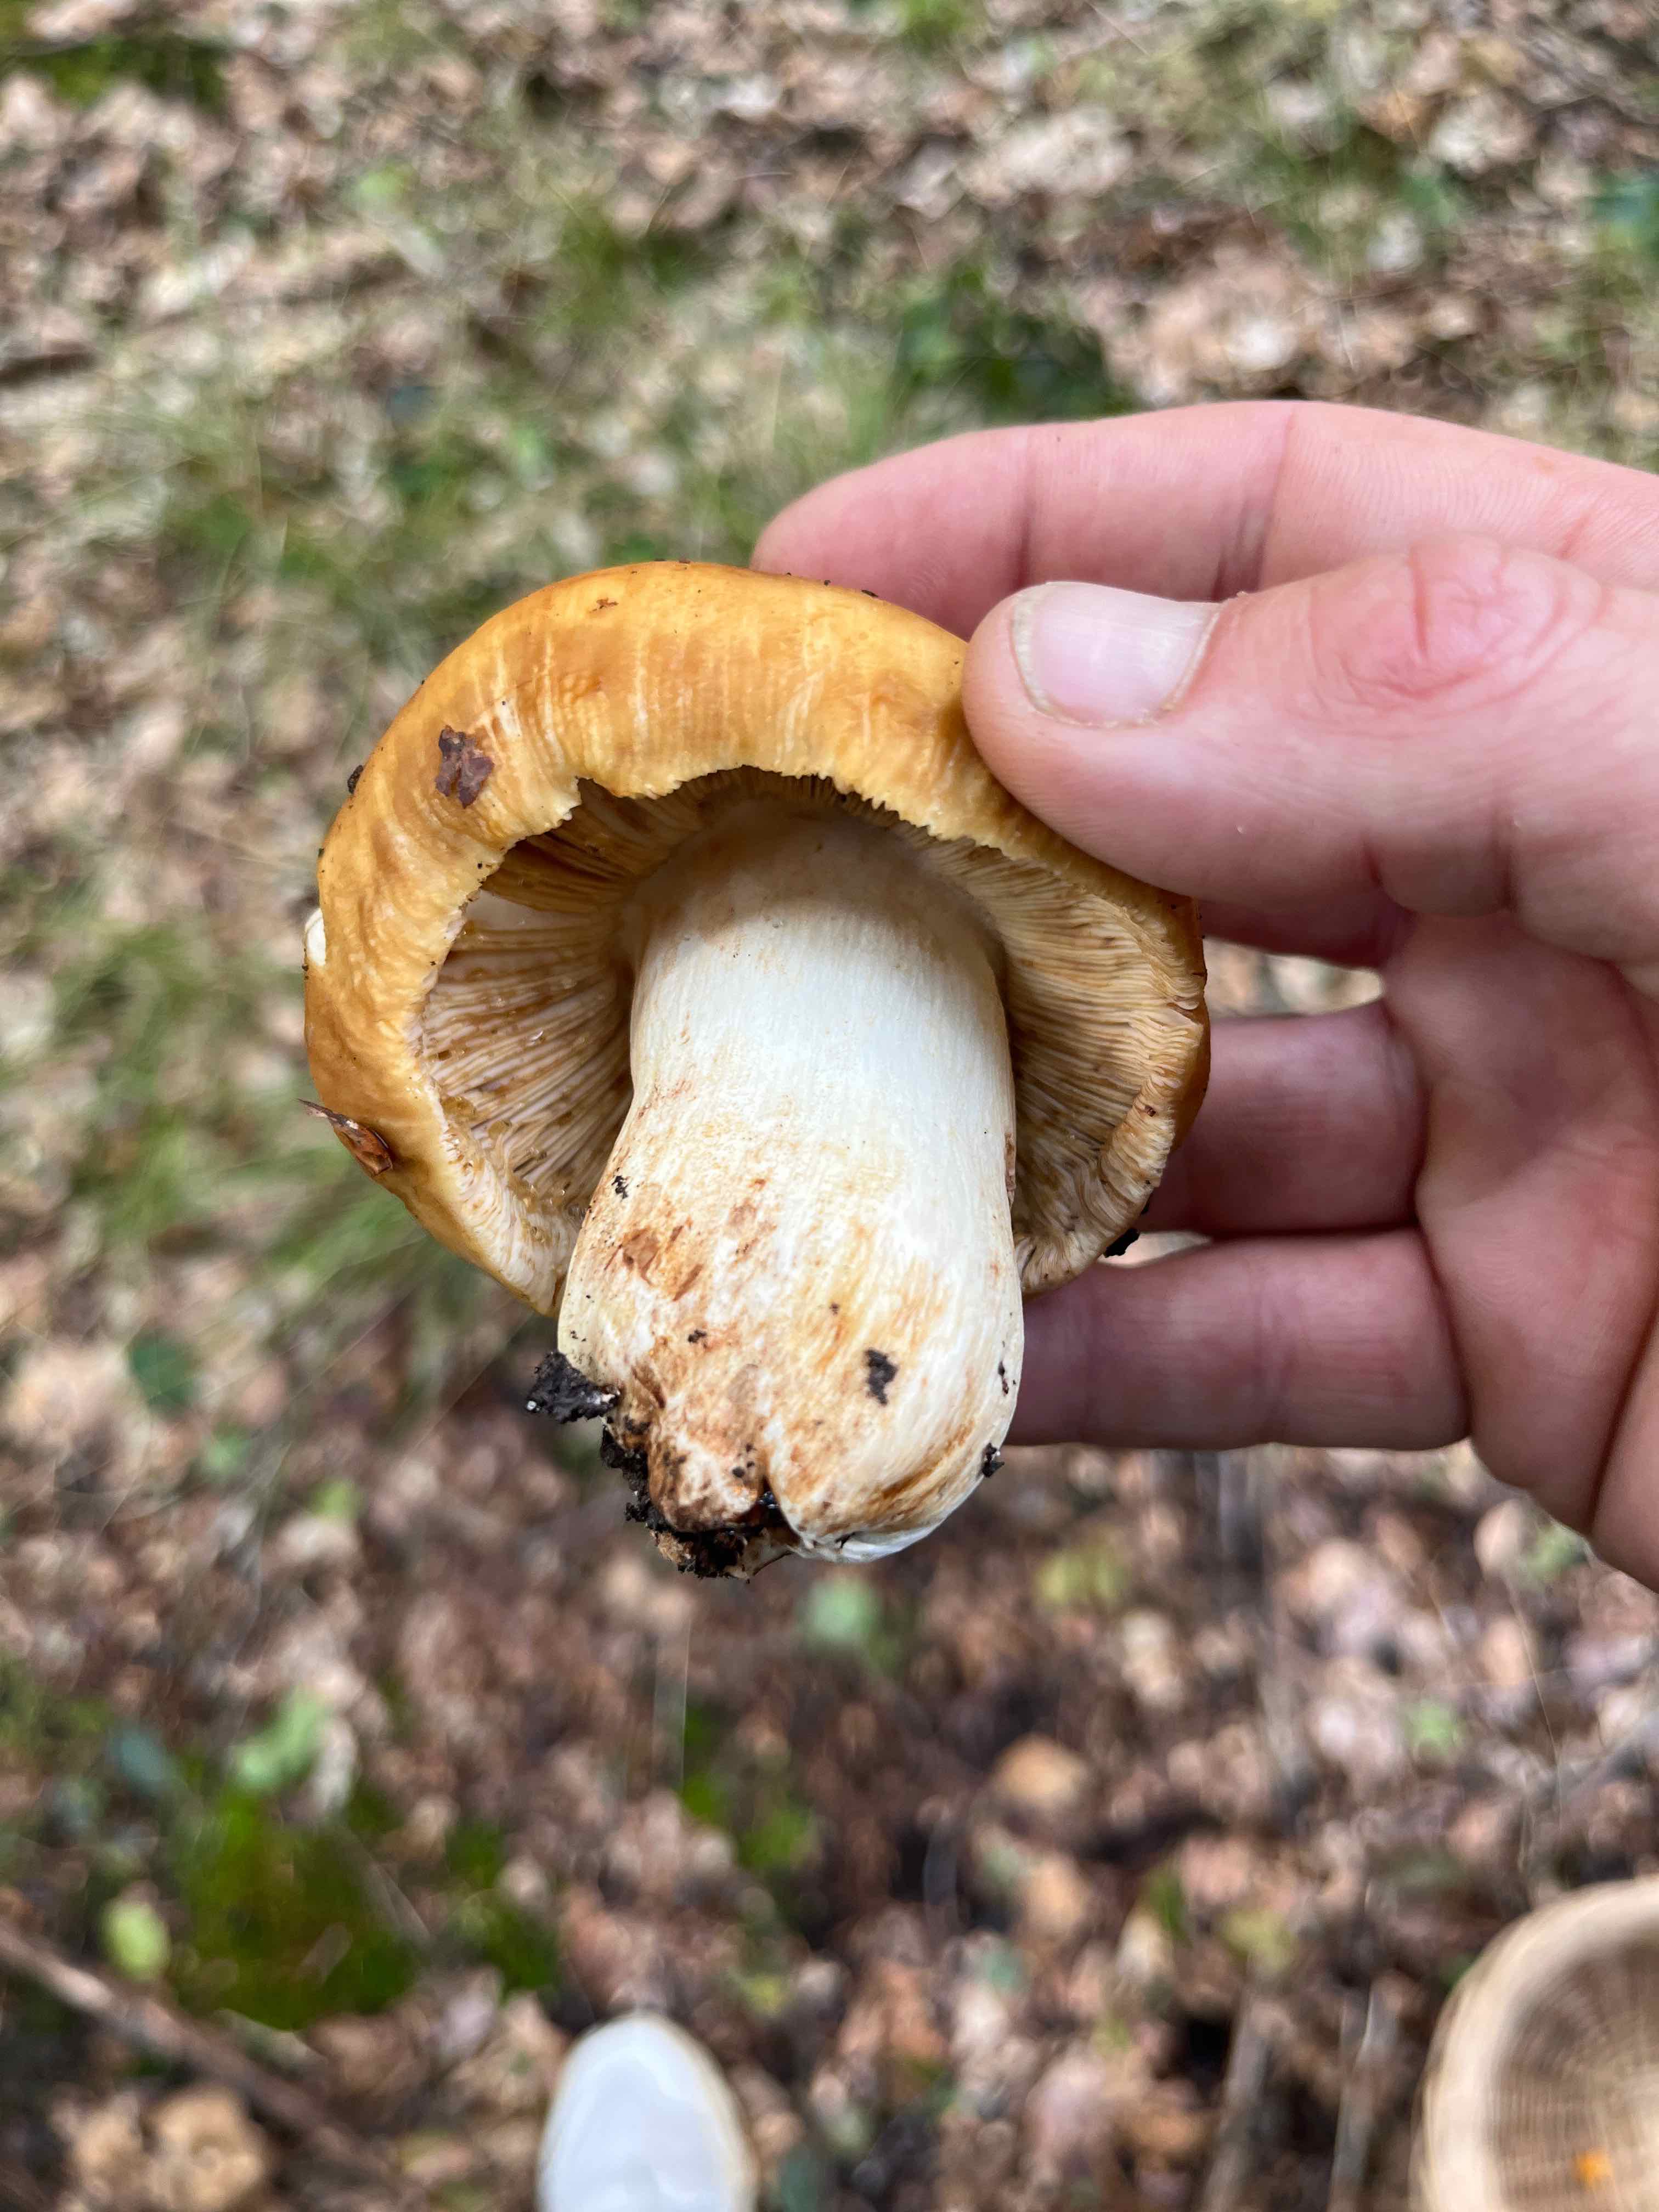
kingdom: Fungi
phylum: Basidiomycota
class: Agaricomycetes
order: Russulales
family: Russulaceae
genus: Russula
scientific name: Russula foetens
